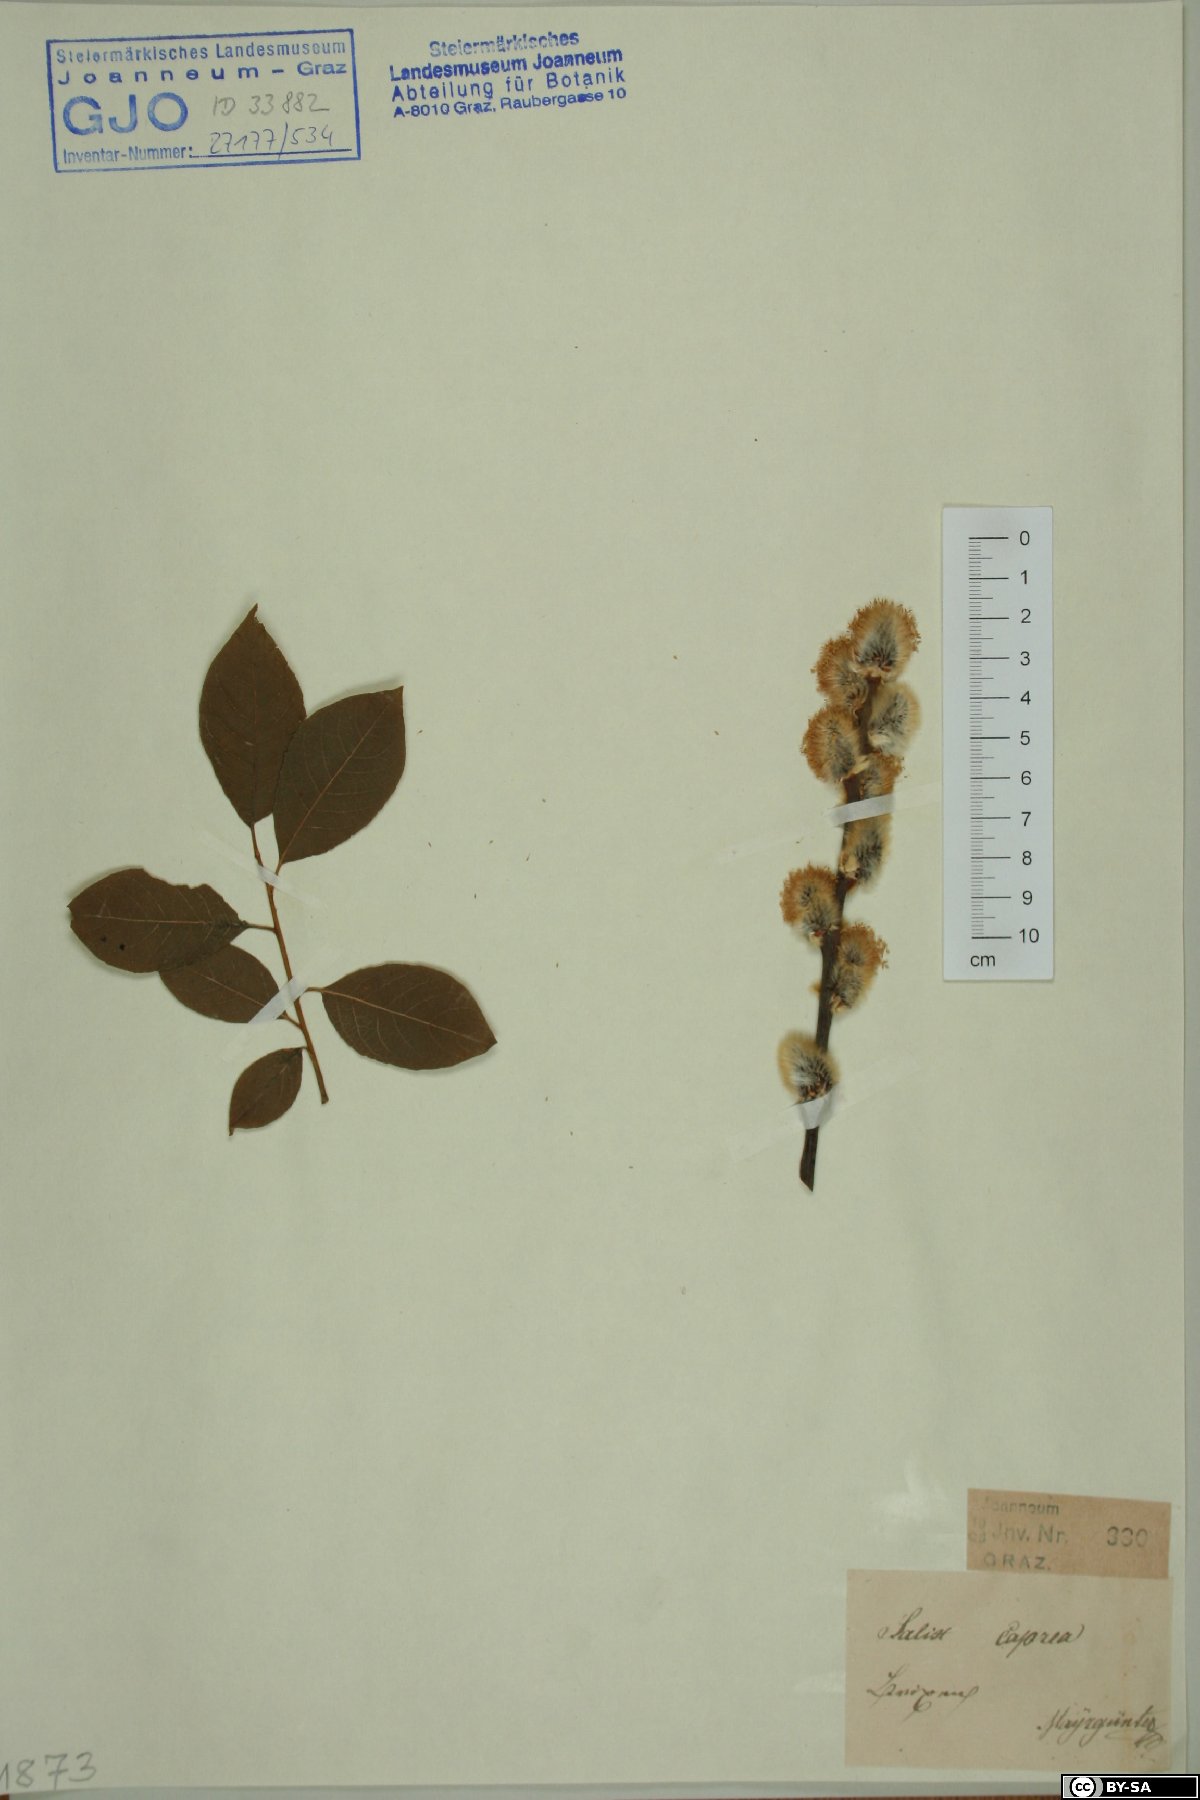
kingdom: Plantae
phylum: Tracheophyta
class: Magnoliopsida
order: Malpighiales
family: Salicaceae
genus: Salix
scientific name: Salix caprea
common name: Goat willow
